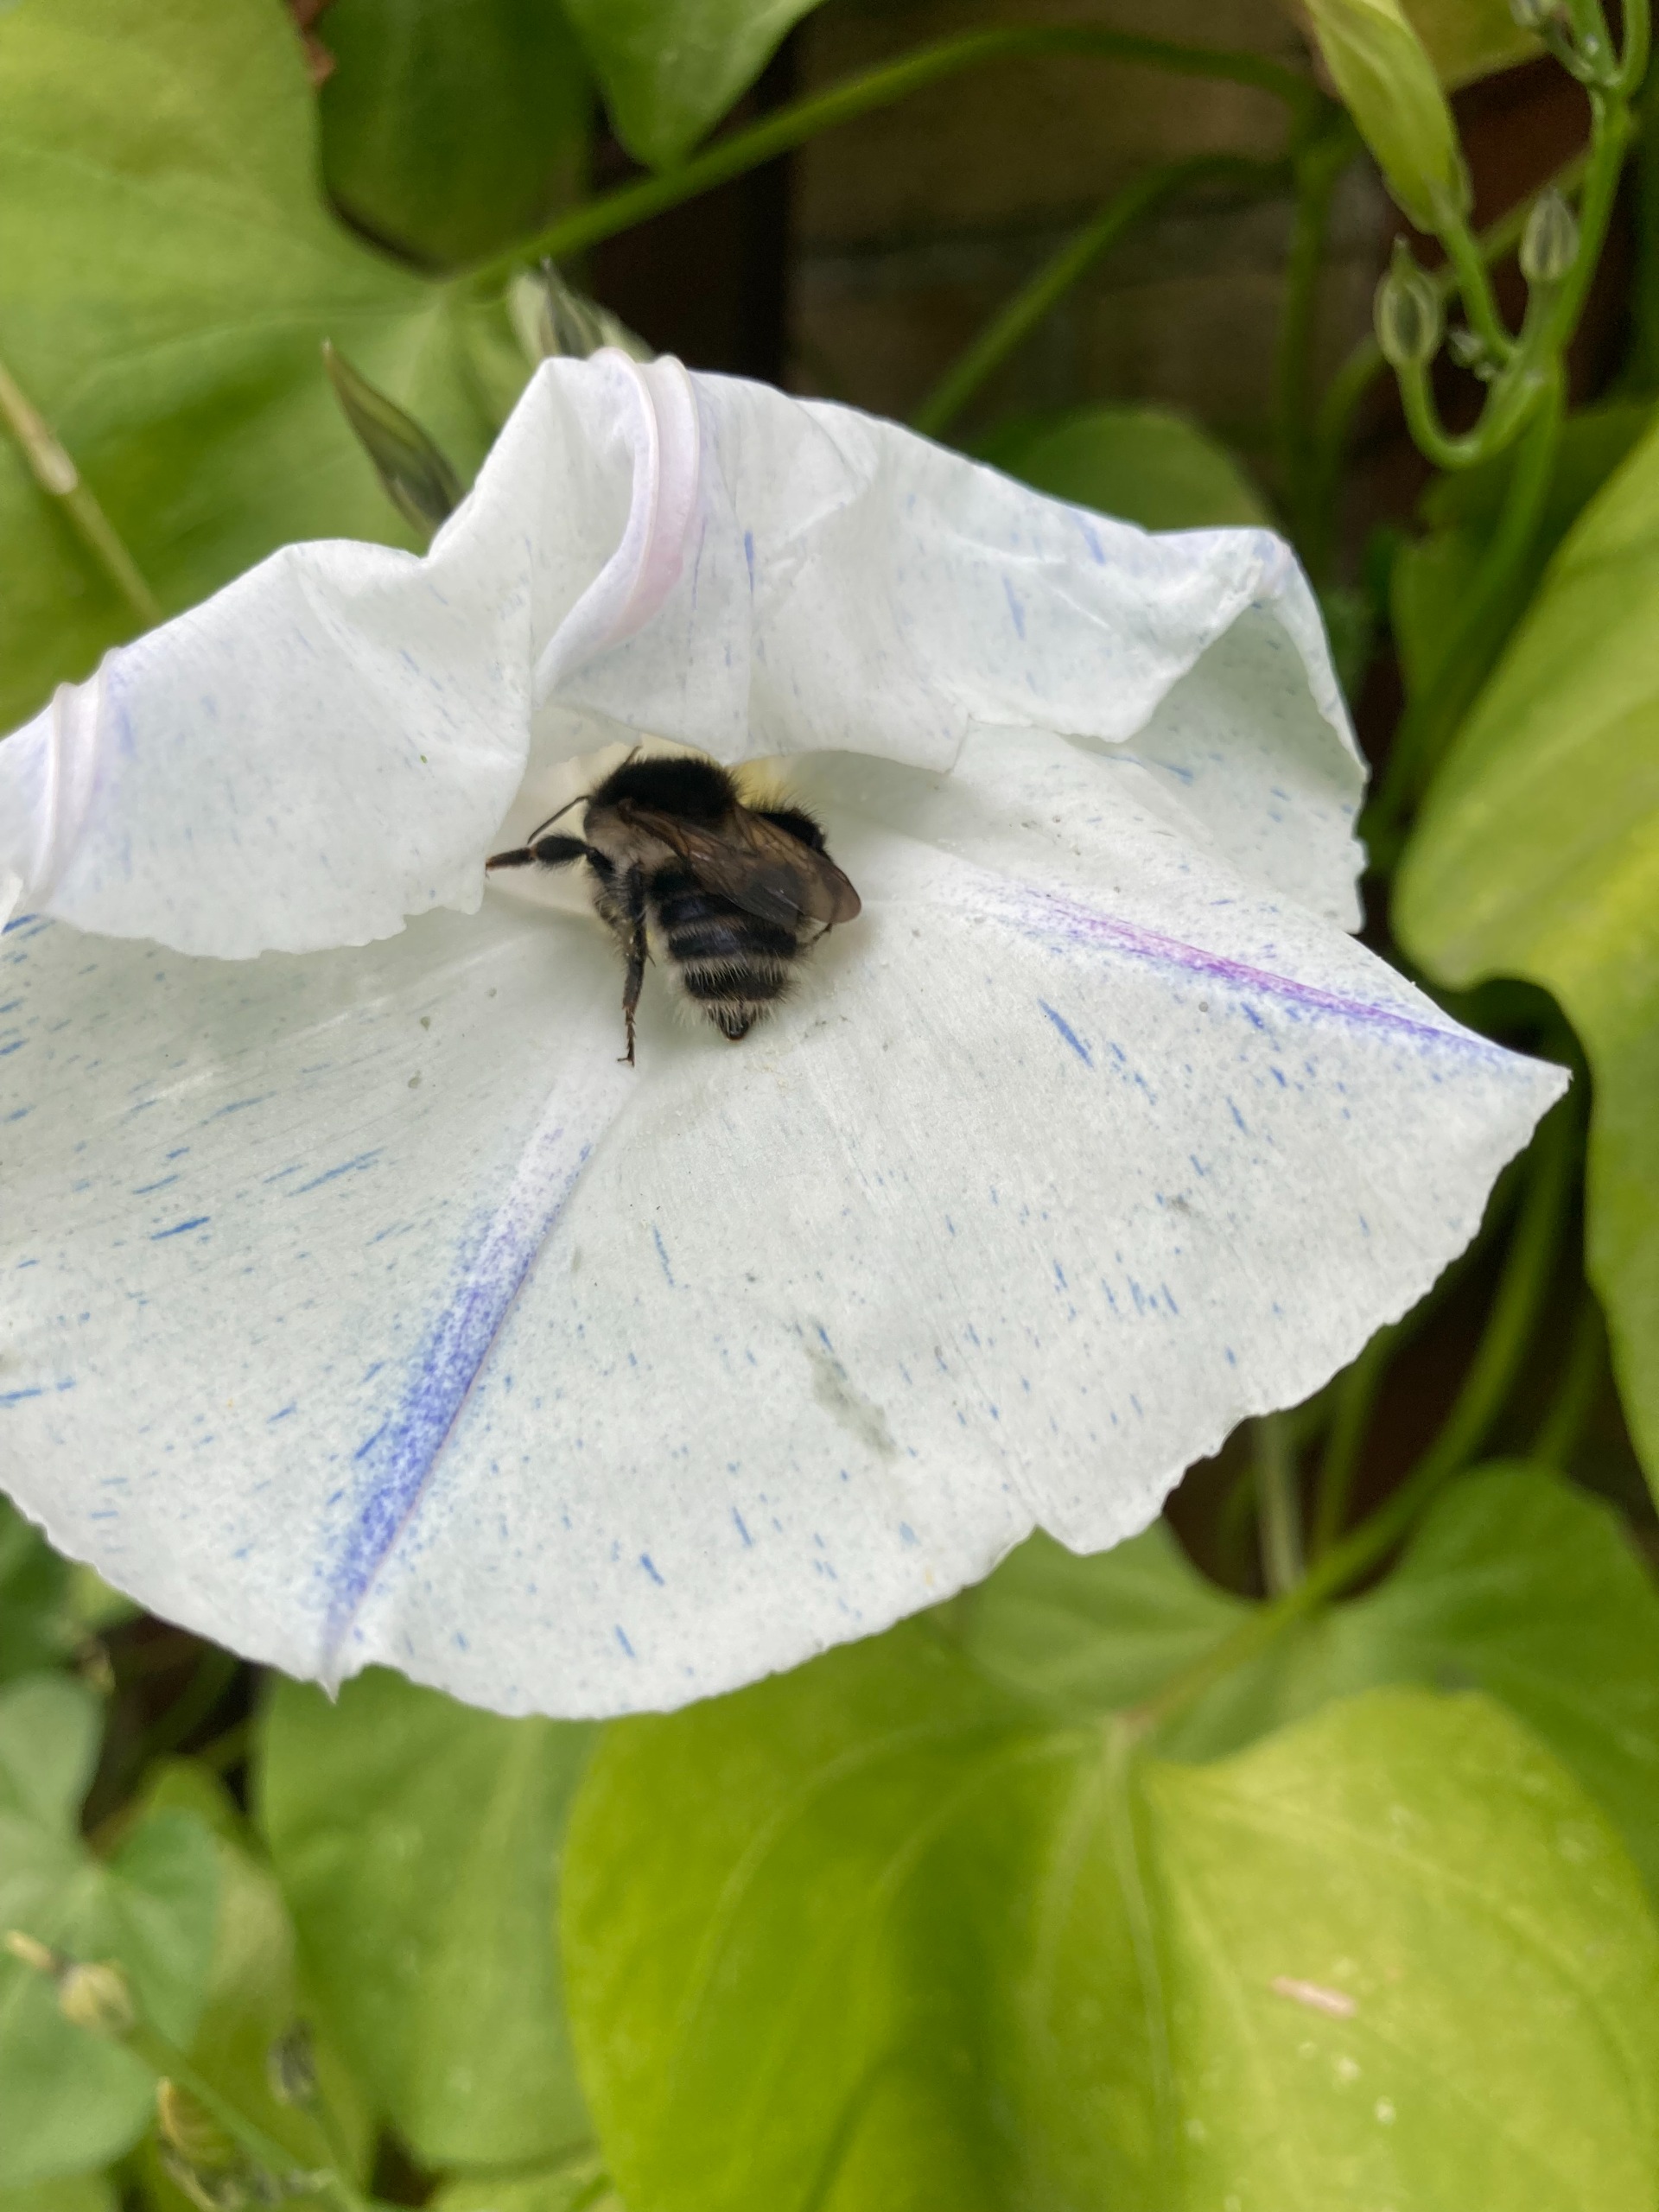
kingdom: Animalia
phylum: Arthropoda
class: Insecta
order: Hymenoptera
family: Apidae
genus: Bombus
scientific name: Bombus pascuorum
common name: Agerhumle
